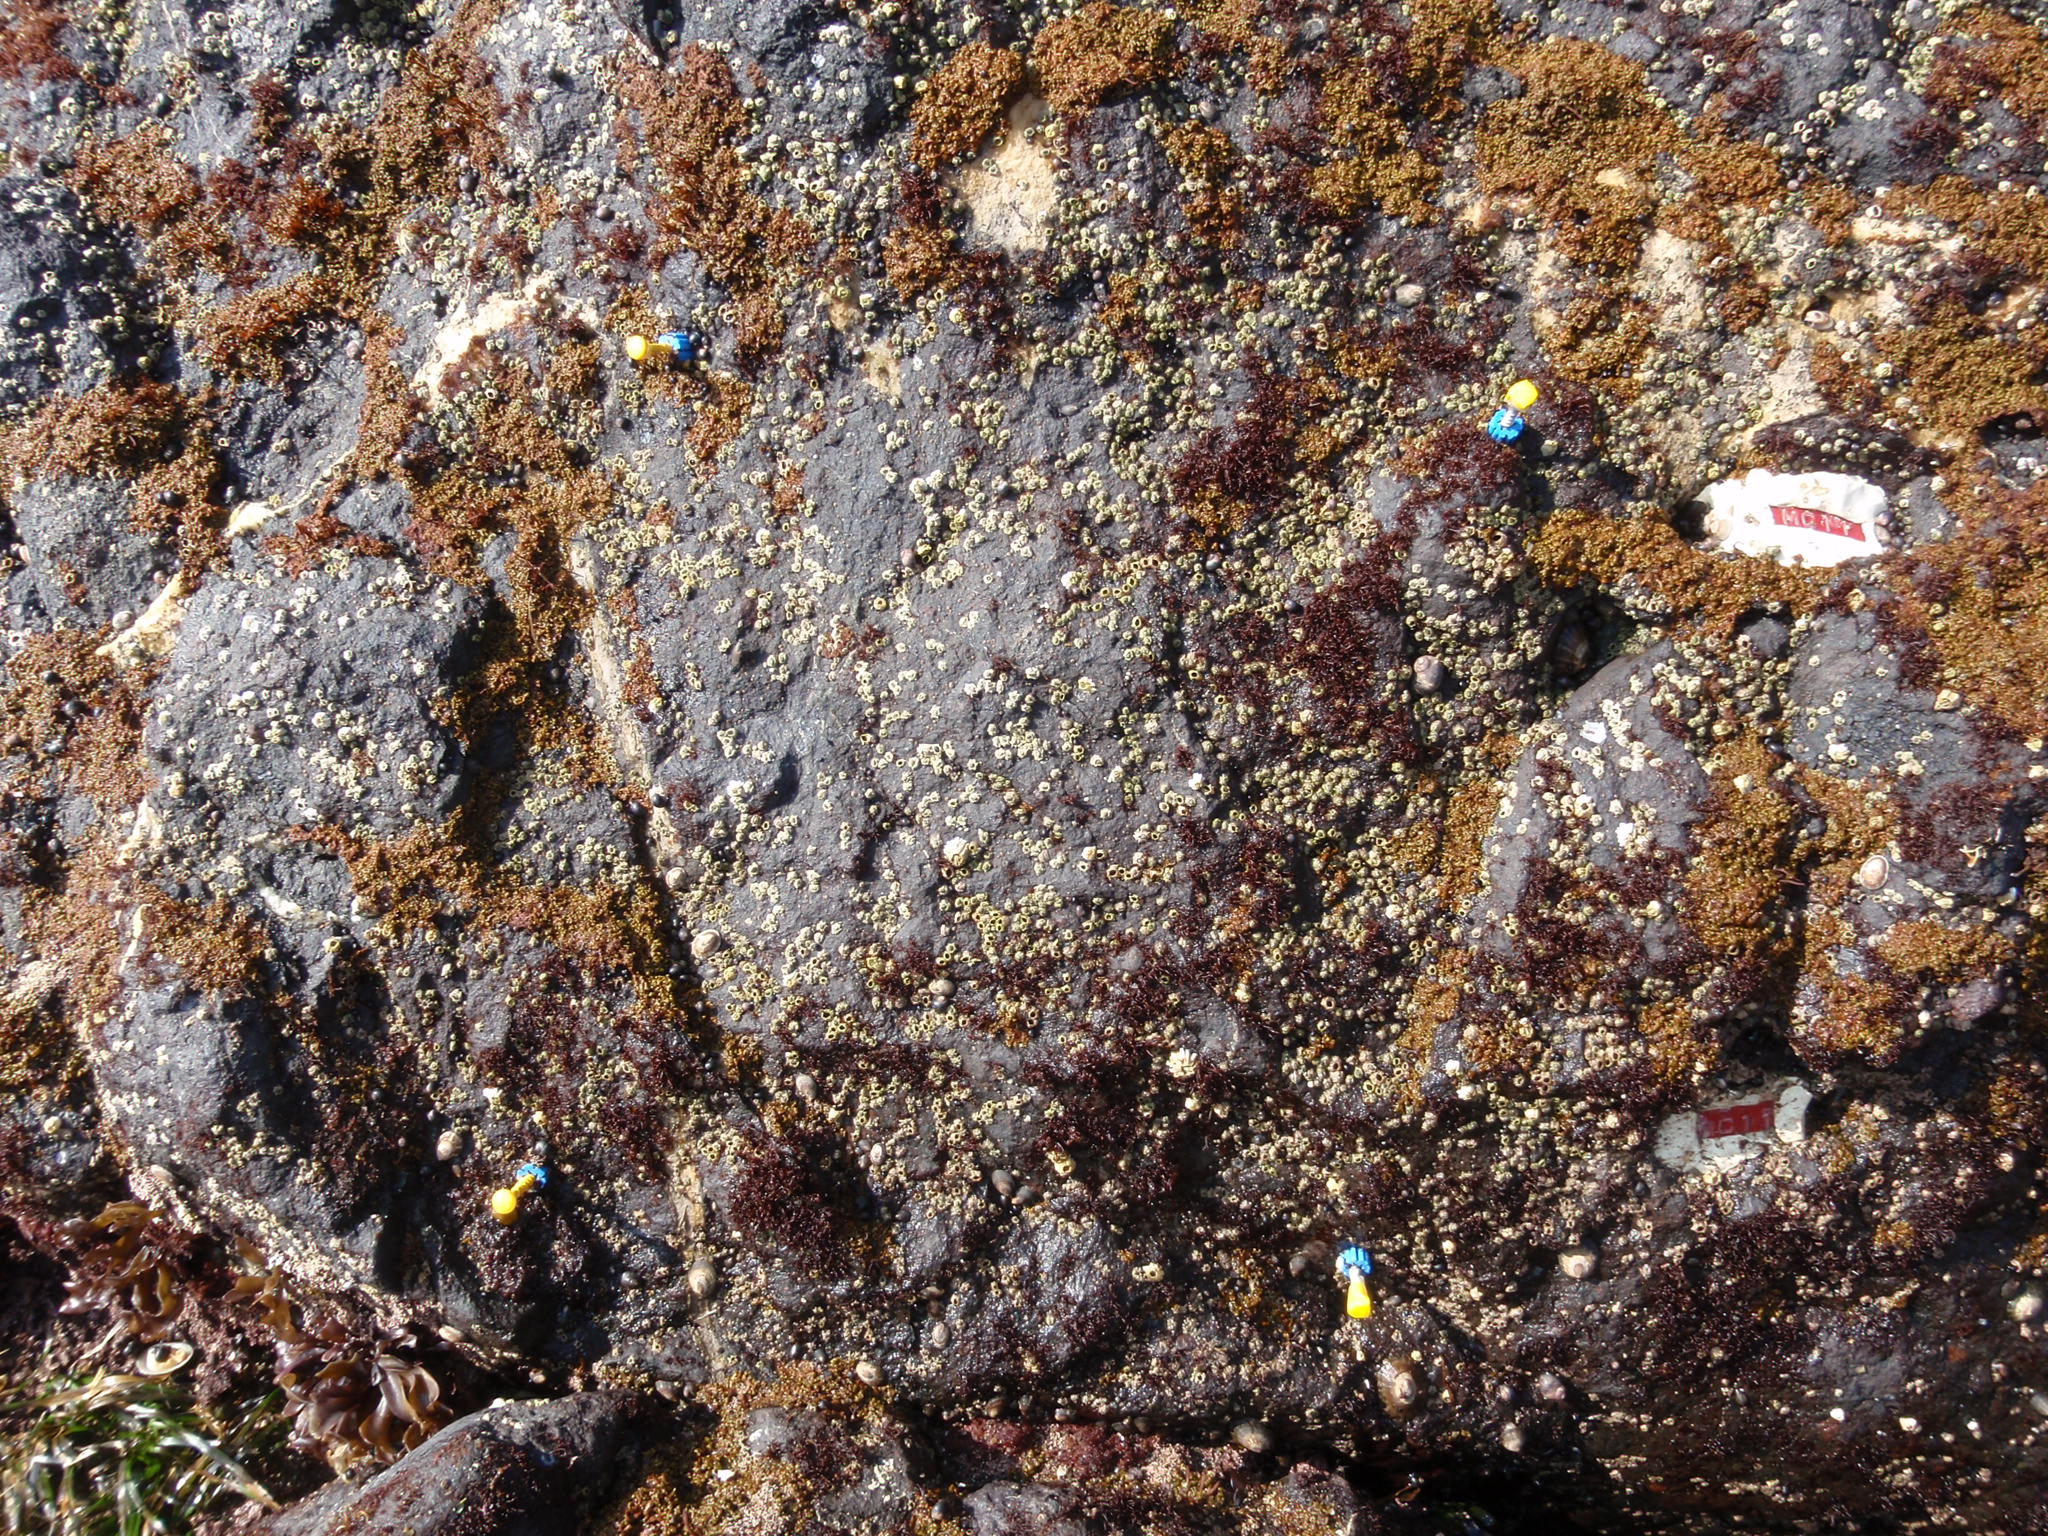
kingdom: Animalia
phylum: Arthropoda
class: Maxillopoda
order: Sessilia
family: Chthamalidae
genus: Chthamalus
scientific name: Chthamalus dalli
